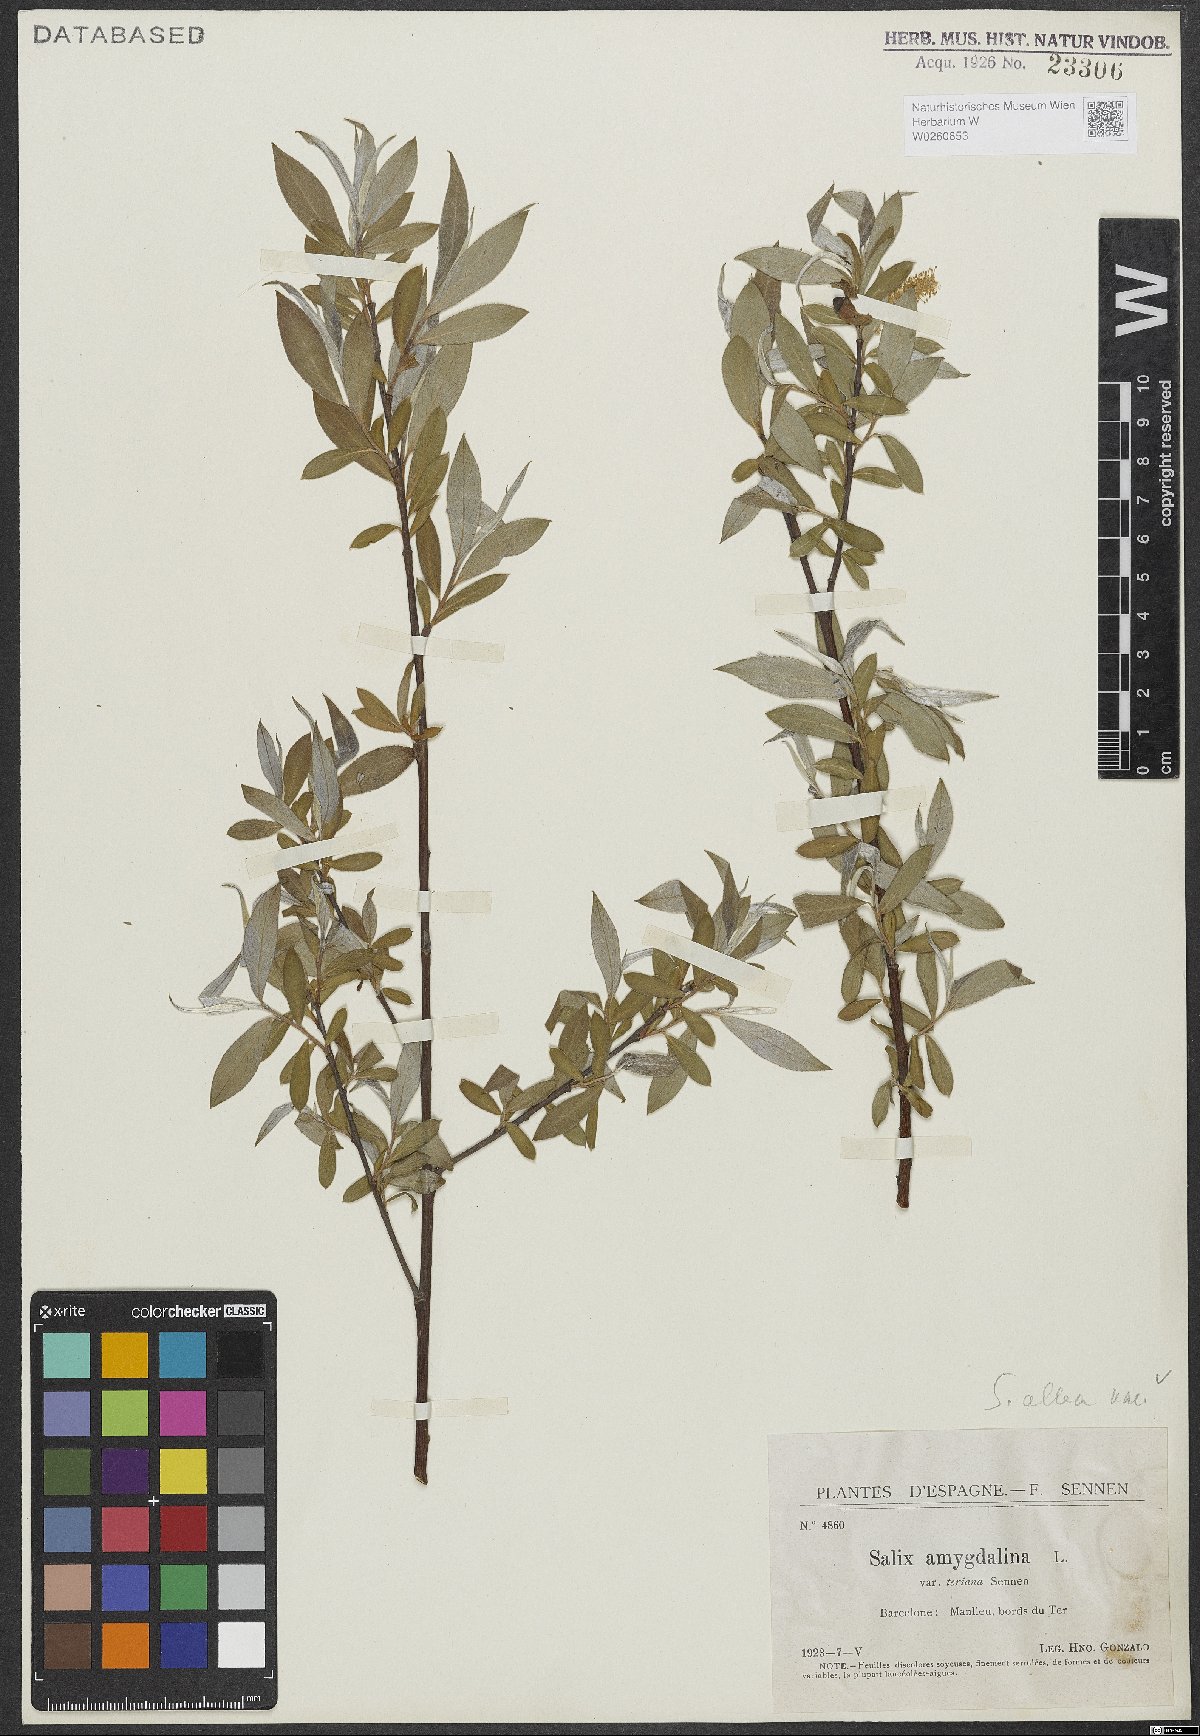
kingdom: Plantae
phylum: Tracheophyta
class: Magnoliopsida
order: Malpighiales
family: Salicaceae
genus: Salix
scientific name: Salix alba
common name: White willow
